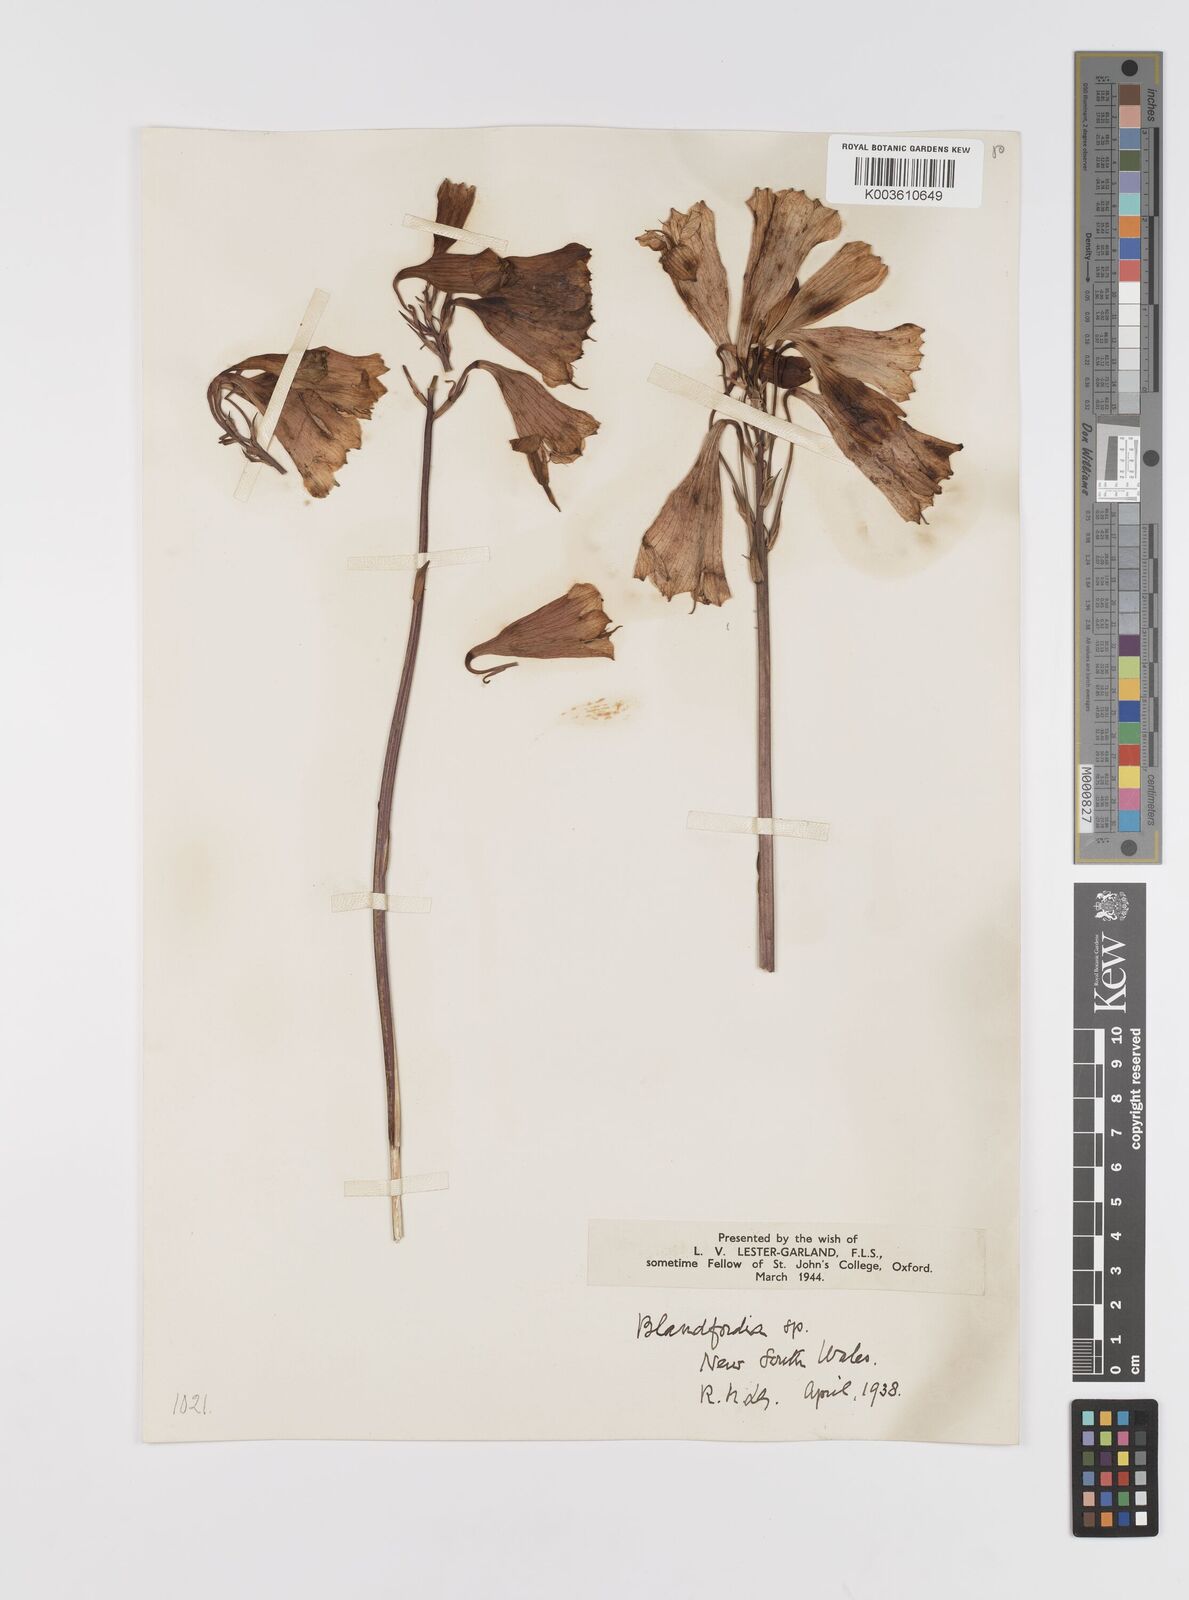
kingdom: Plantae
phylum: Tracheophyta
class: Liliopsida
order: Asparagales
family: Blandfordiaceae
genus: Blandfordia
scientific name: Blandfordia punicea
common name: Tasmanian christmas-bell
